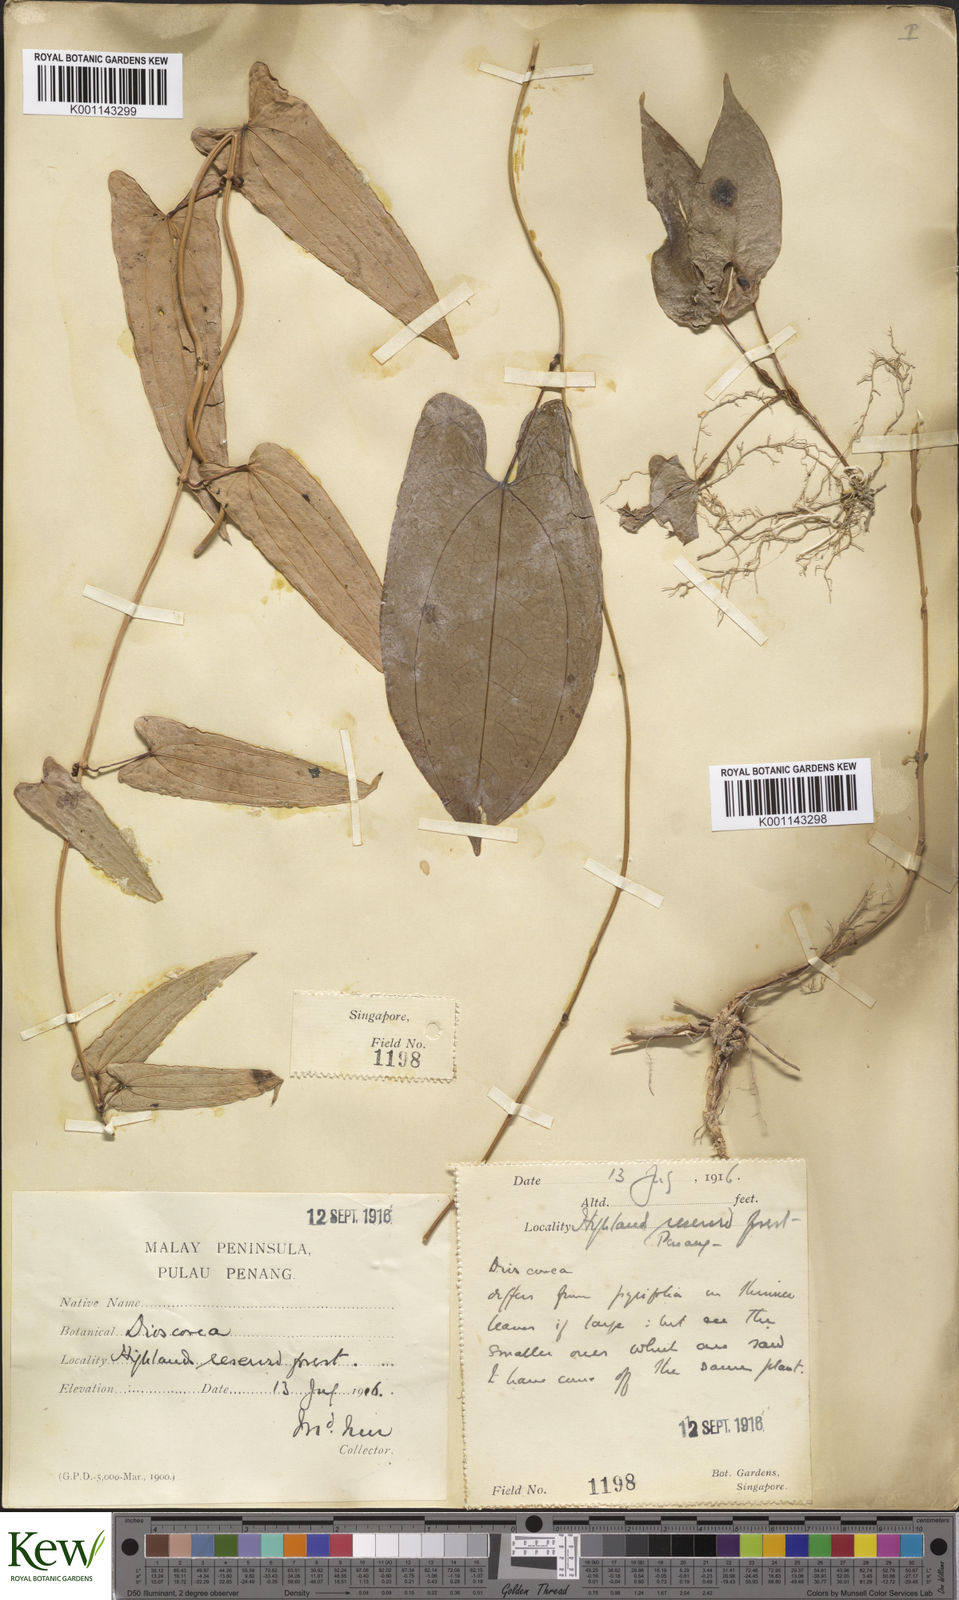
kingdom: Plantae
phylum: Tracheophyta
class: Liliopsida
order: Dioscoreales
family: Dioscoreaceae
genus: Dioscorea
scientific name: Dioscorea glabra
